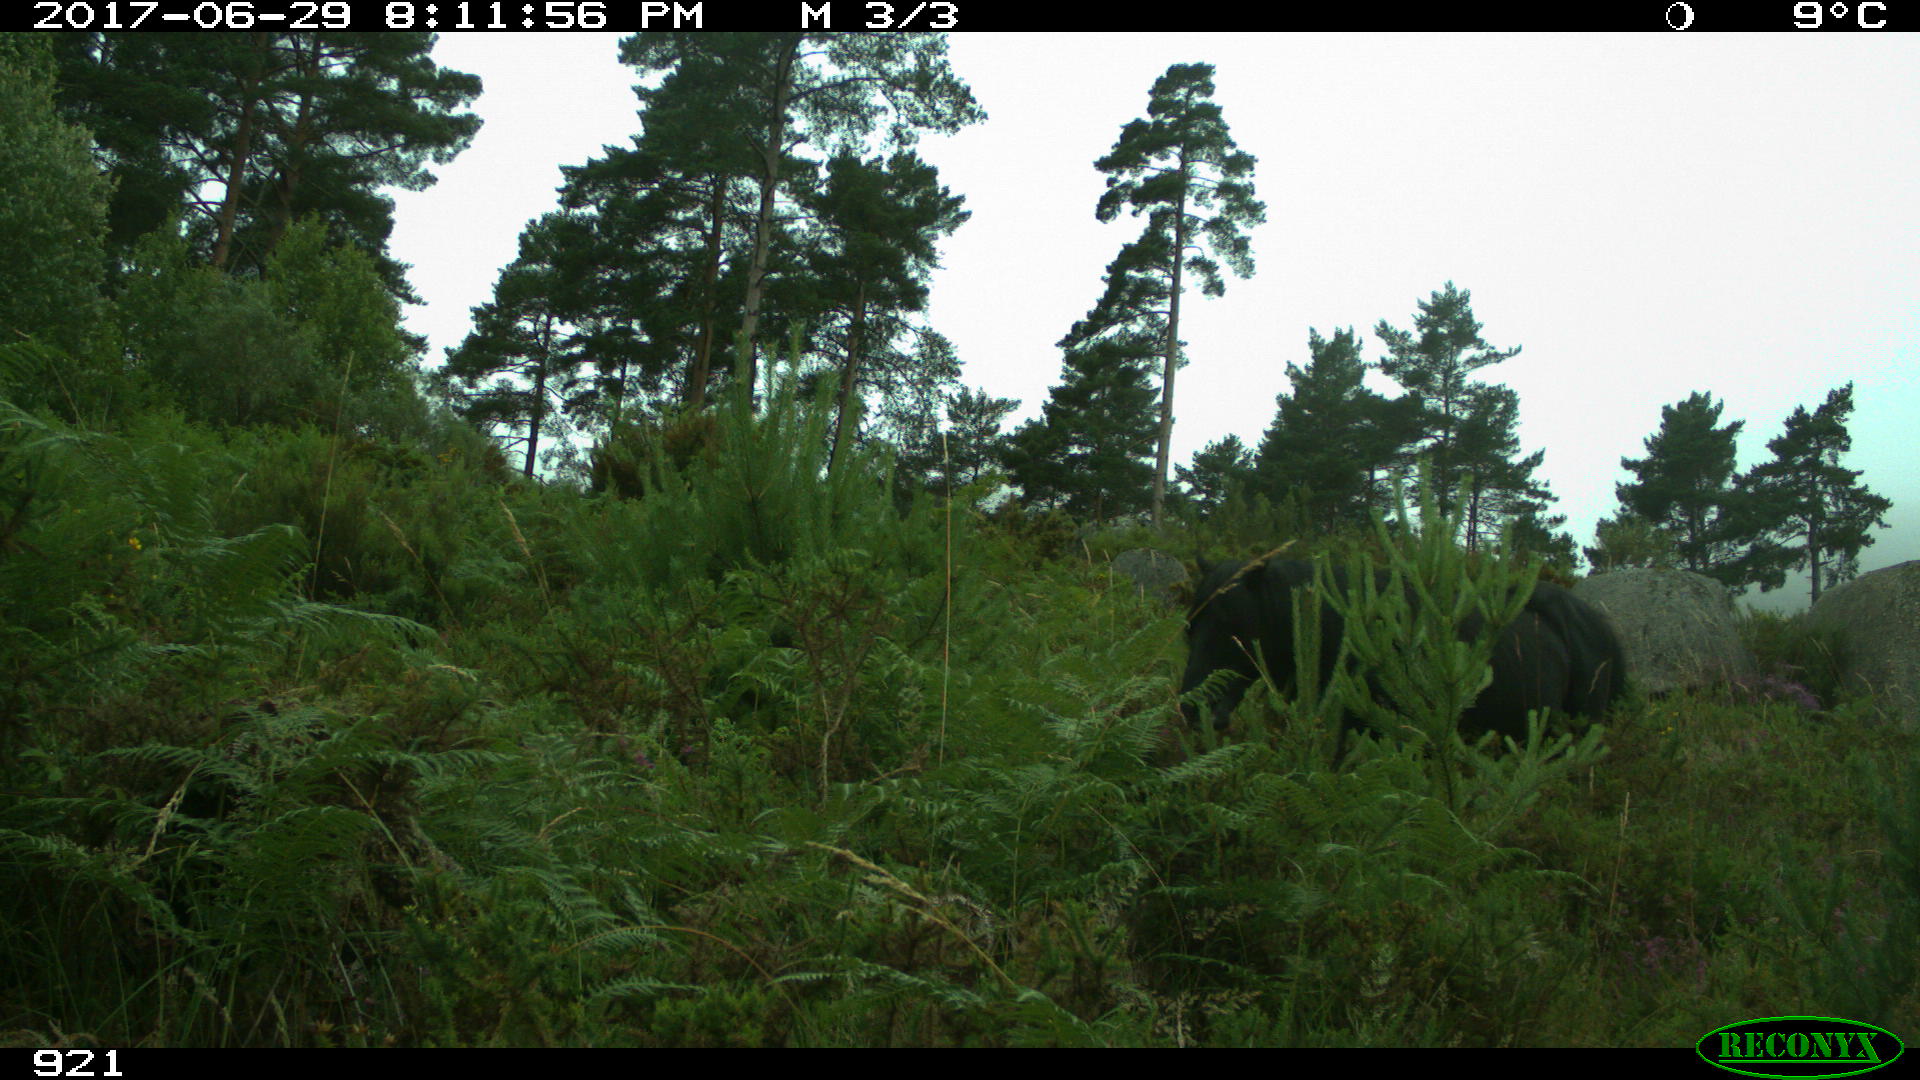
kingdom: Animalia
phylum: Chordata
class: Mammalia
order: Perissodactyla
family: Equidae
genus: Equus
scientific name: Equus caballus
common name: Horse
